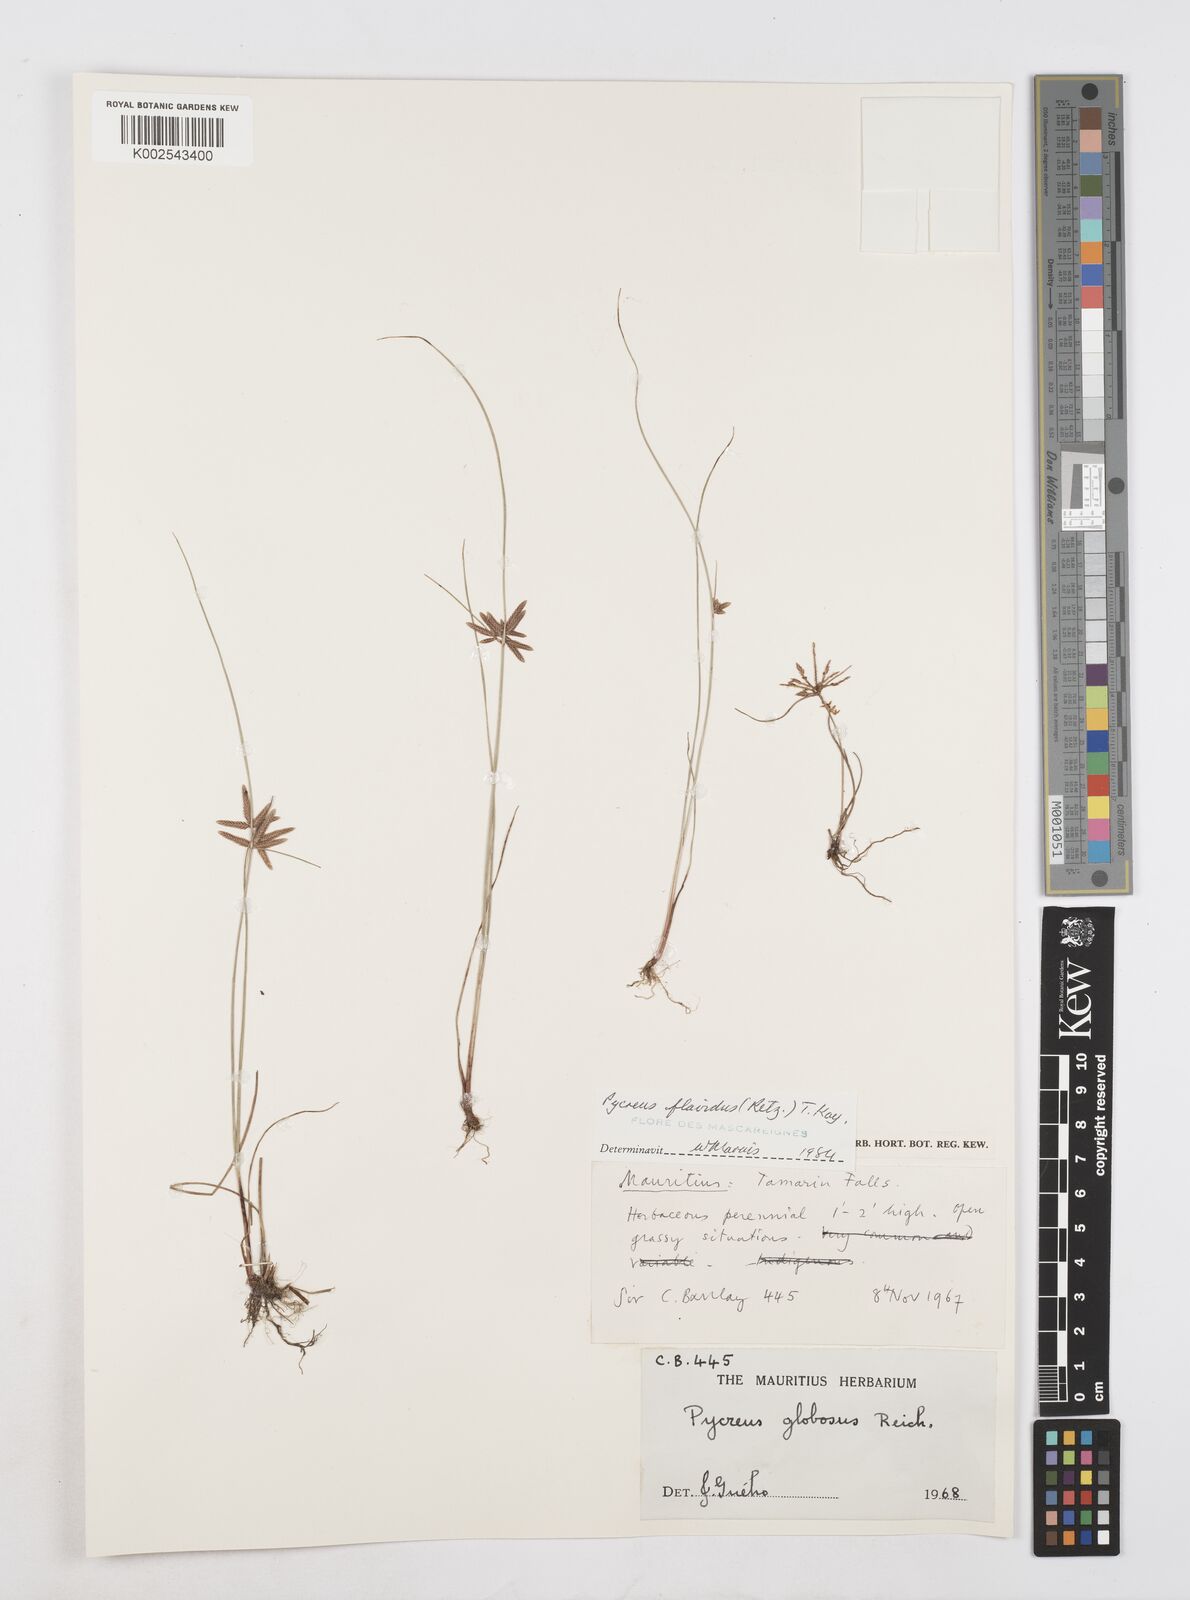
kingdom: Plantae
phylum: Tracheophyta
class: Liliopsida
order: Poales
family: Cyperaceae
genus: Cyperus
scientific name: Cyperus flavidus
